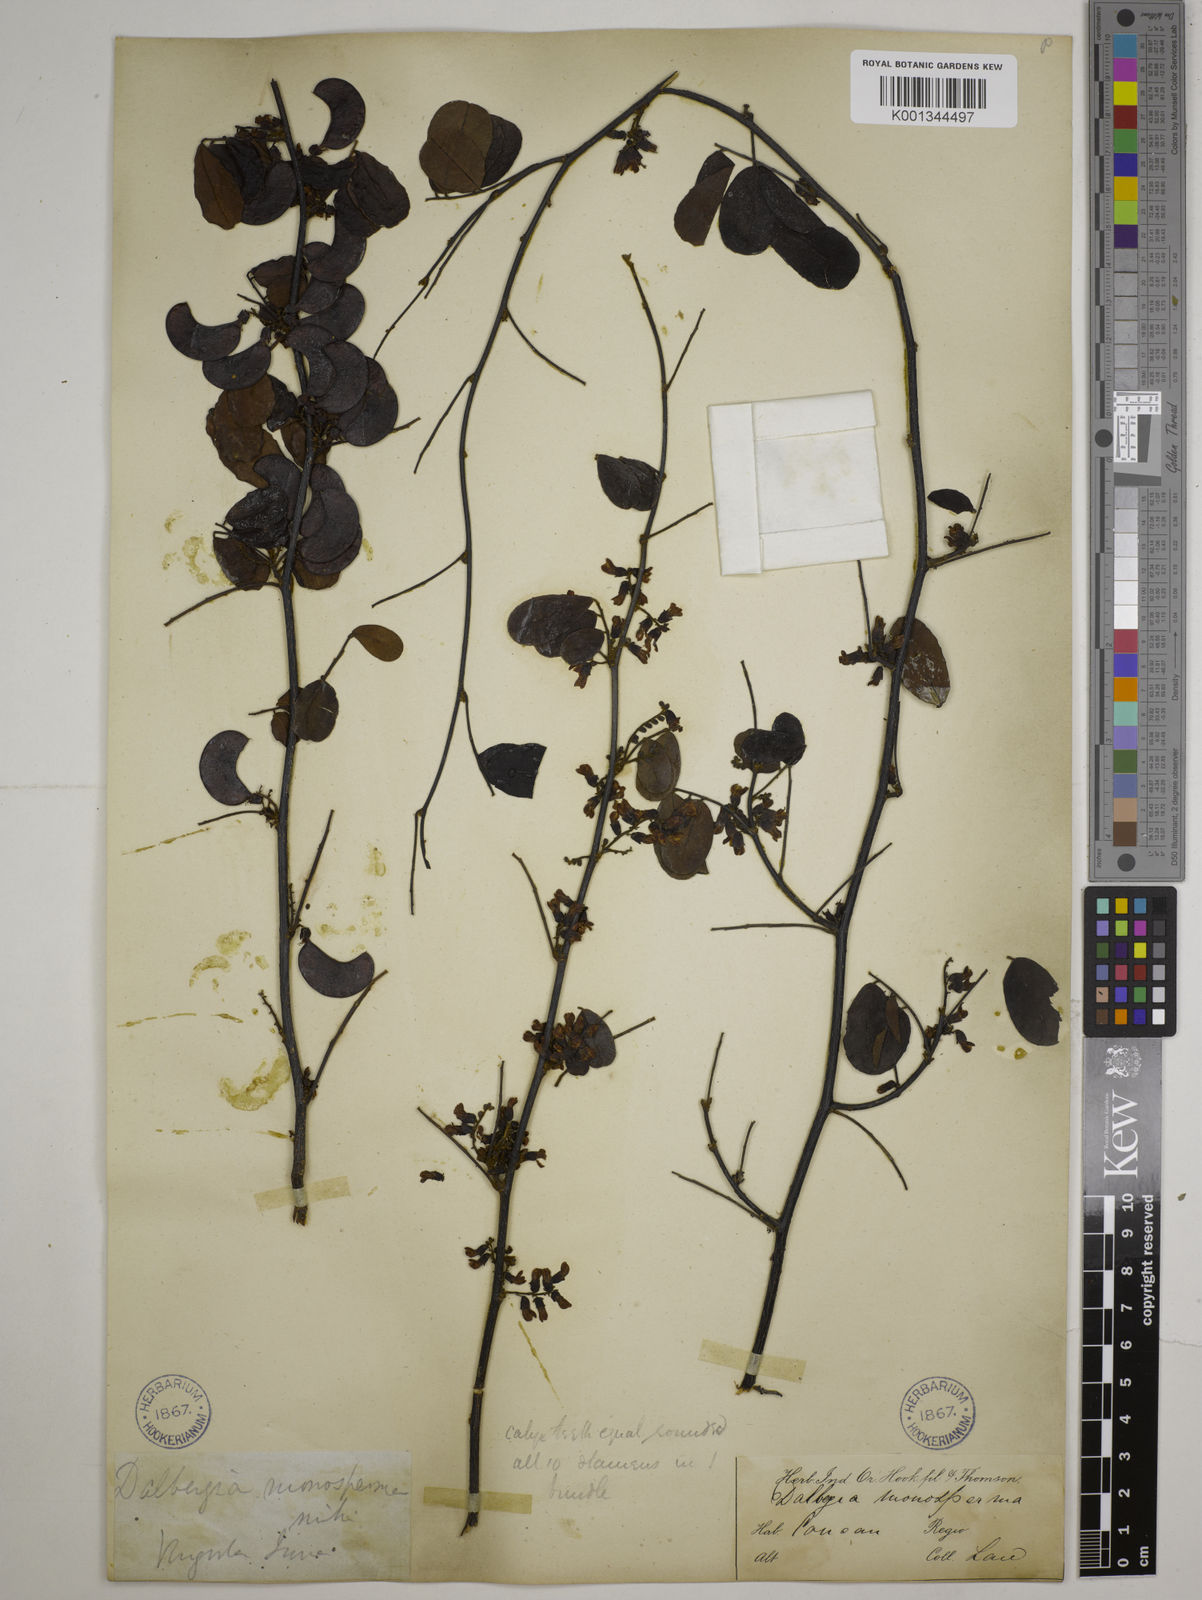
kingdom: Plantae
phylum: Tracheophyta
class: Magnoliopsida
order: Fabales
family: Fabaceae
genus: Dalbergia
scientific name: Dalbergia candenatensis
